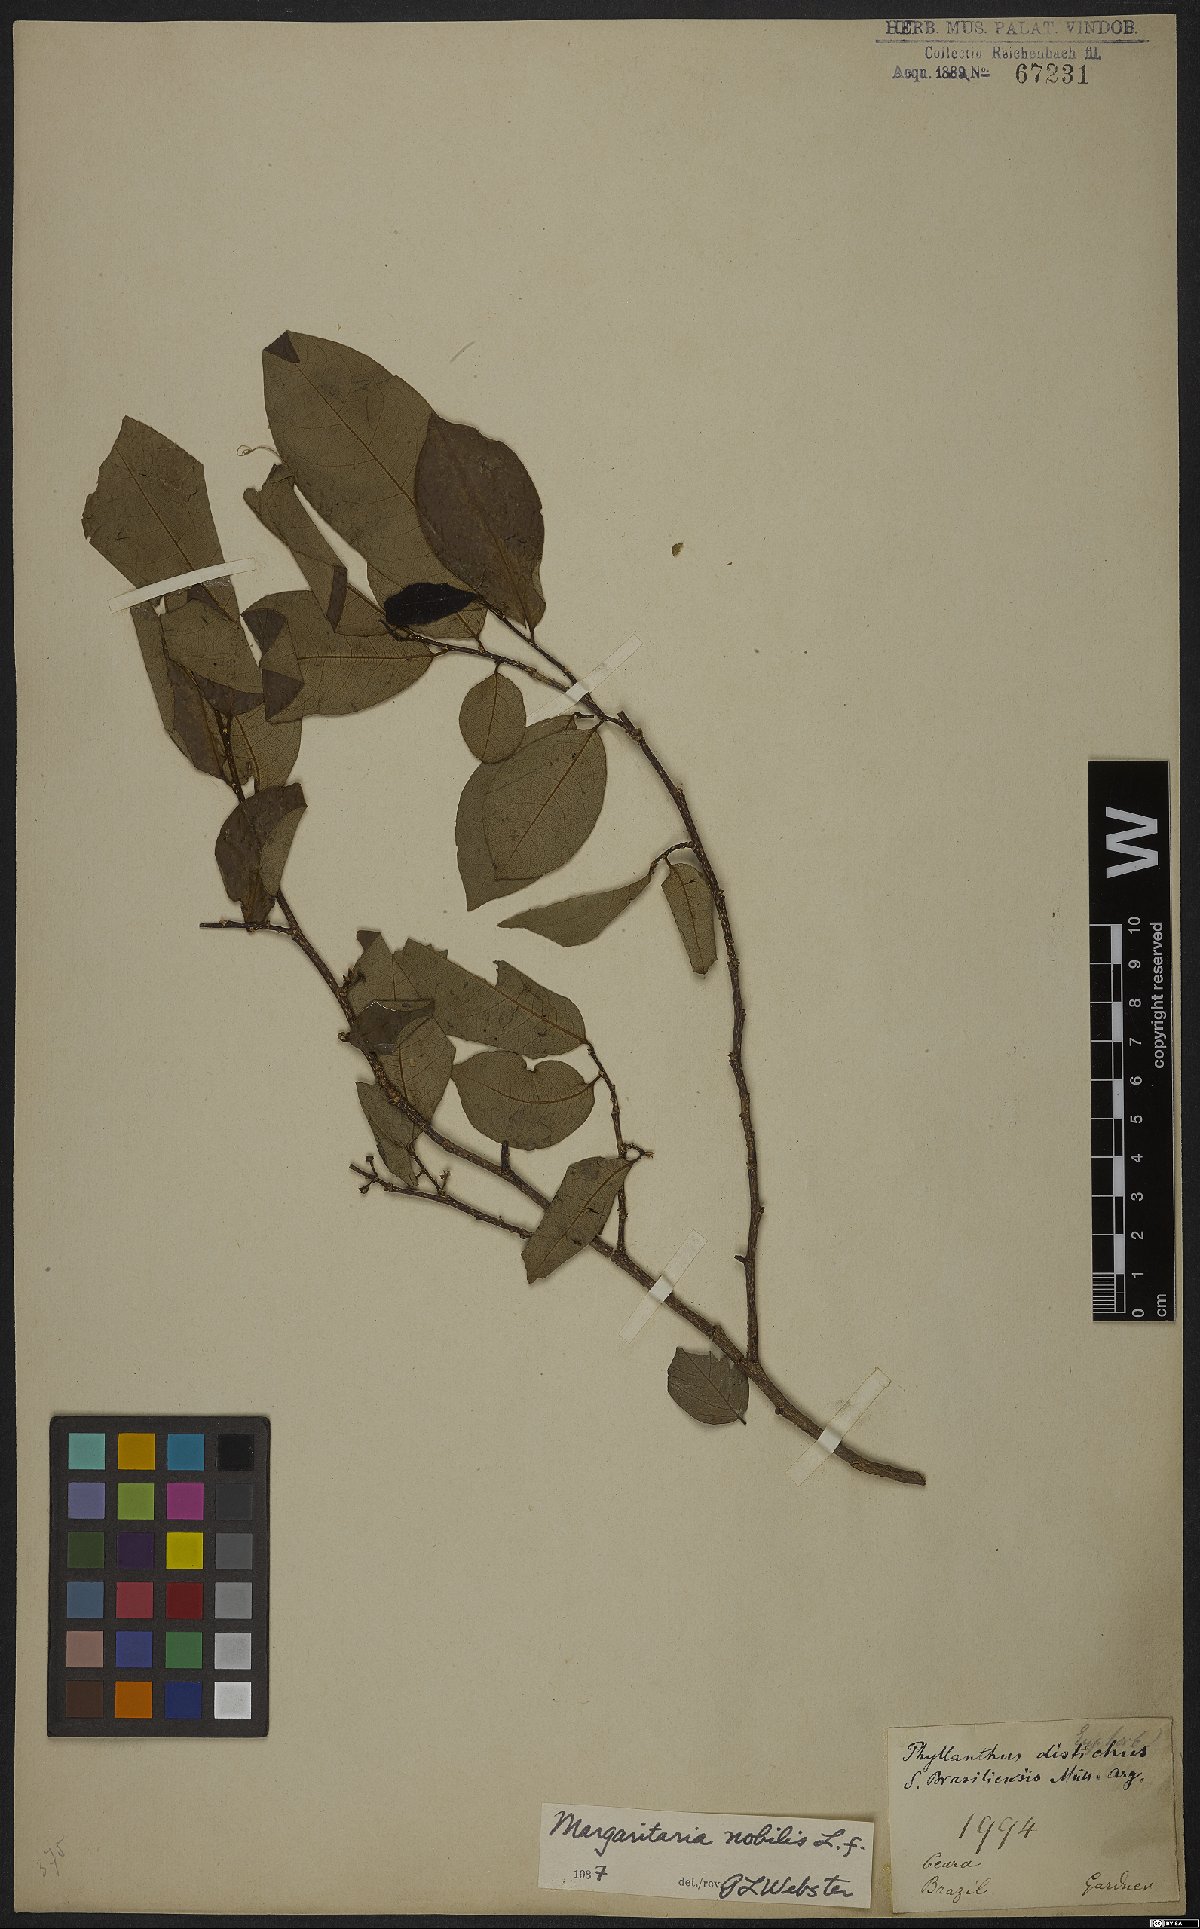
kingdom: Plantae
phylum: Tracheophyta
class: Magnoliopsida
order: Malpighiales
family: Phyllanthaceae
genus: Margaritaria
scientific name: Margaritaria nobilis
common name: Goose berry
